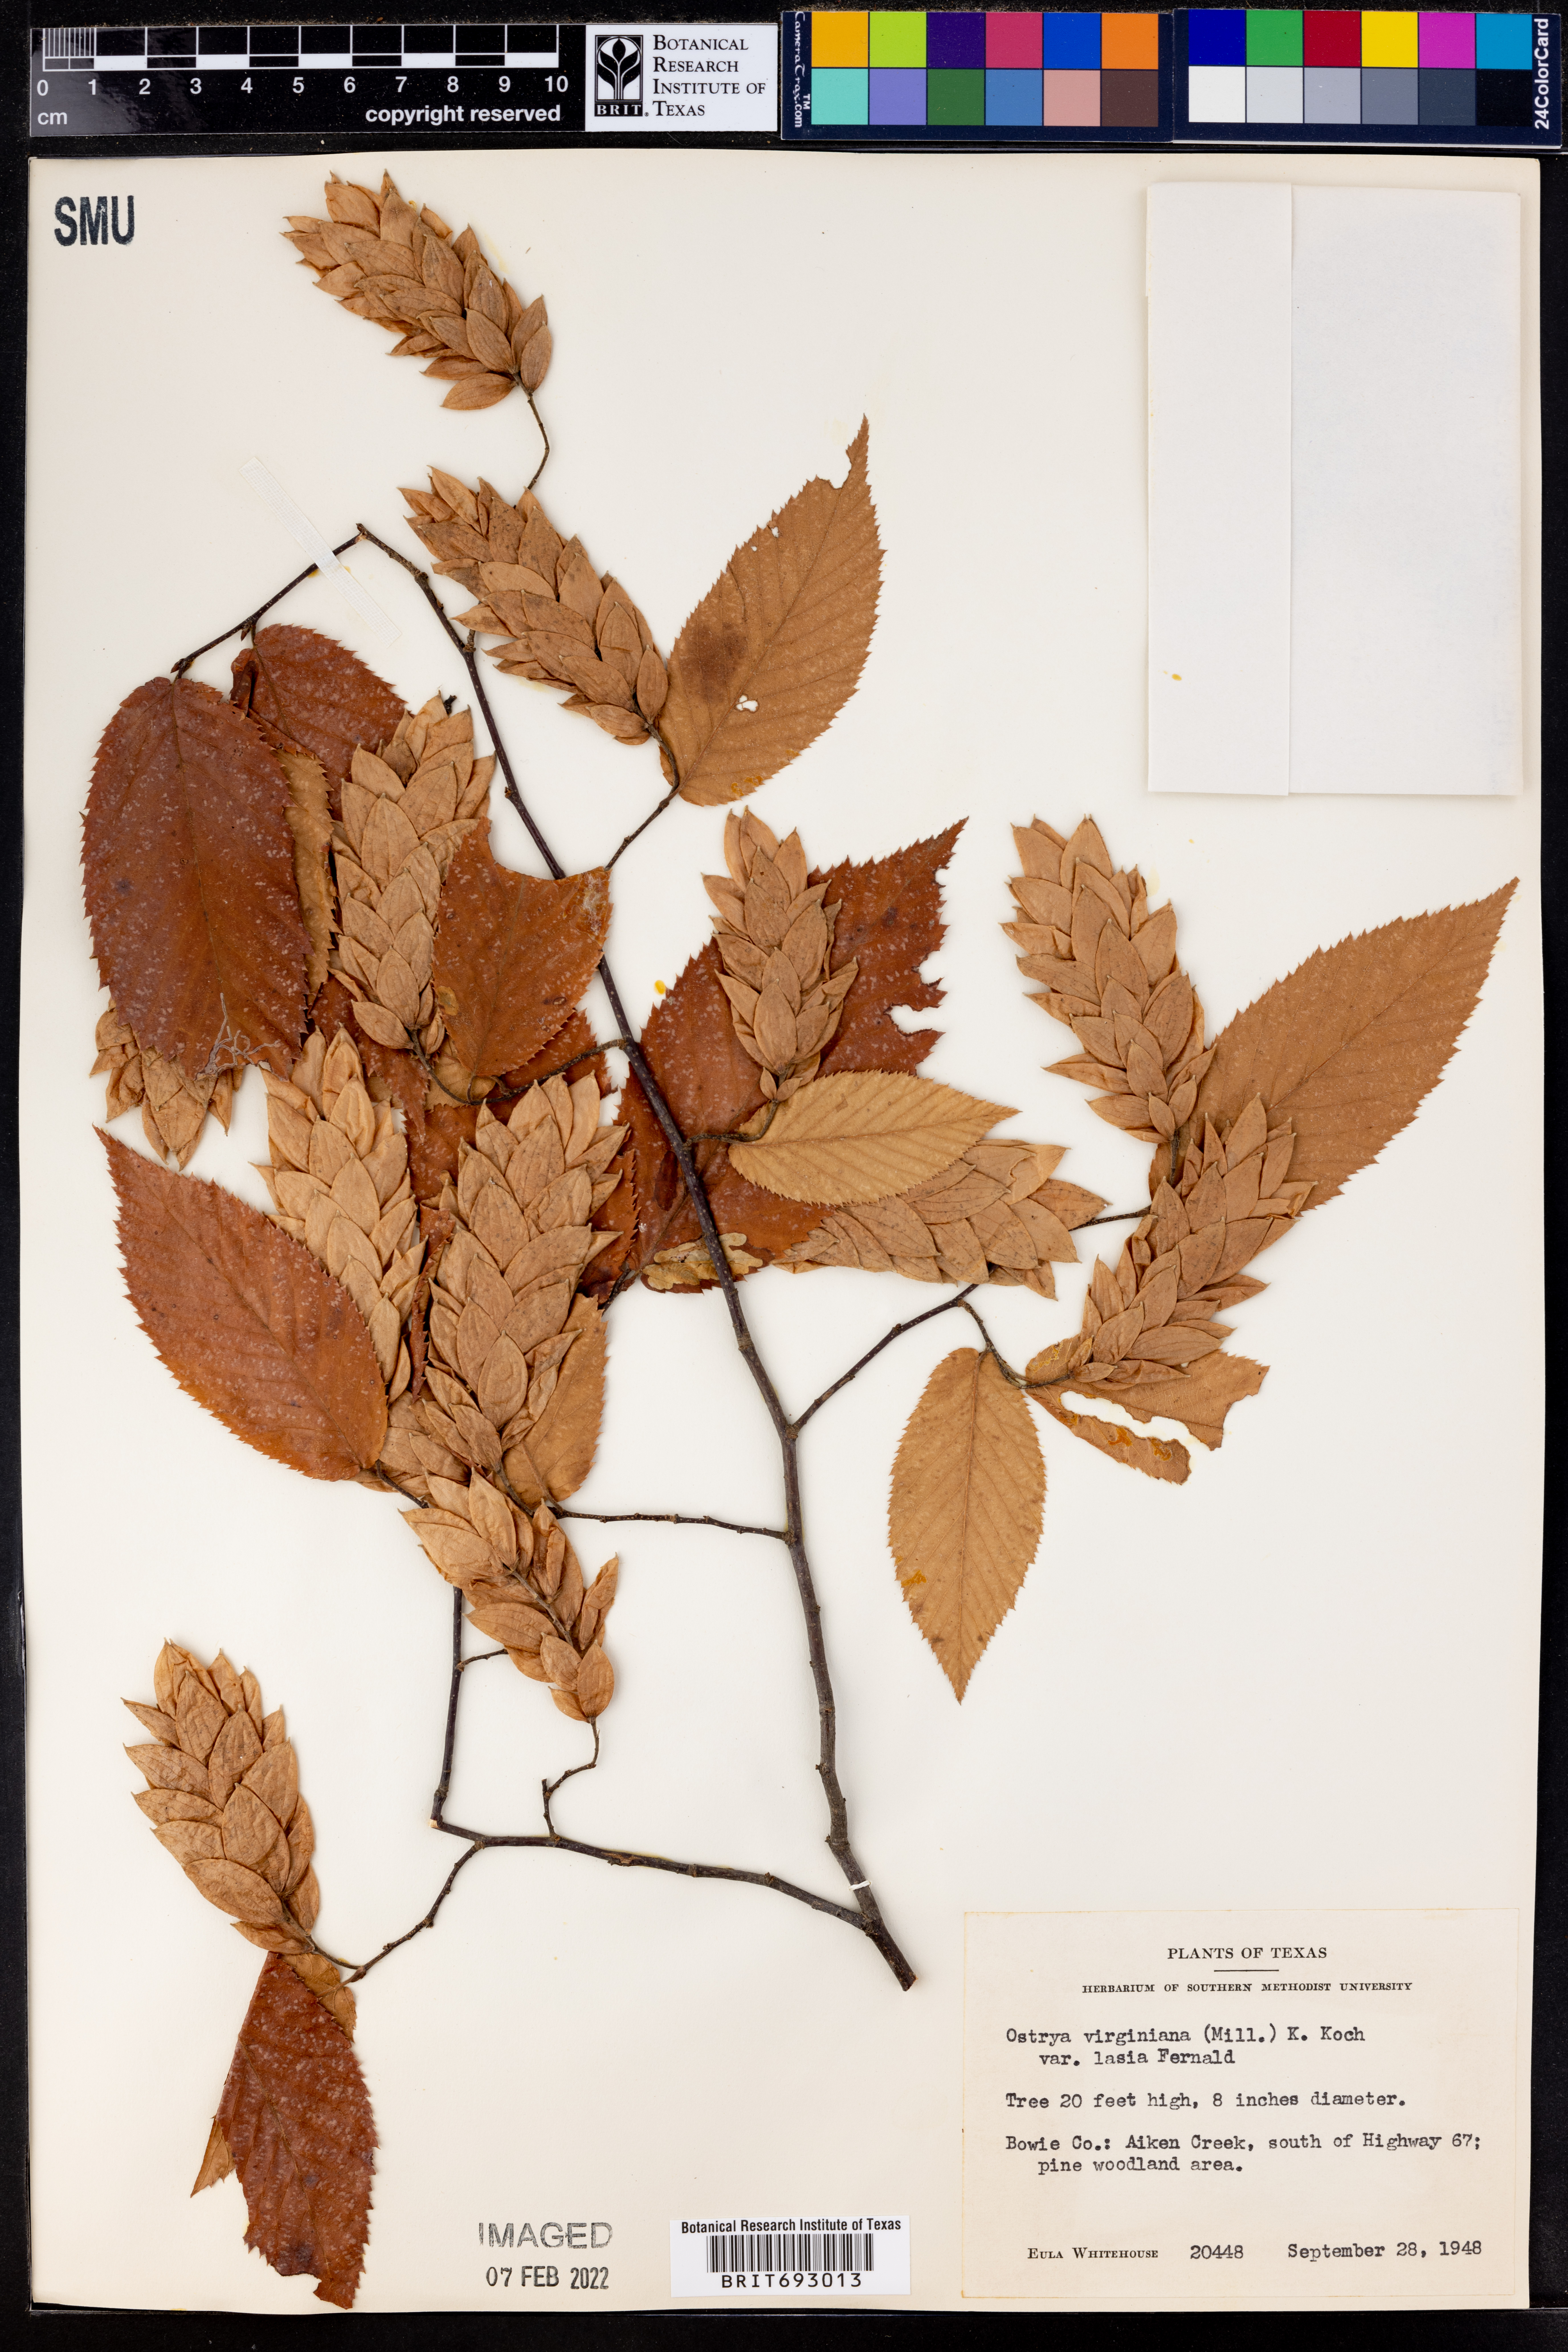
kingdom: Plantae
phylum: Tracheophyta
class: Magnoliopsida
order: Fagales
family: Betulaceae
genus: Ostrya
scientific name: Ostrya virginiana
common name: Ironwood
